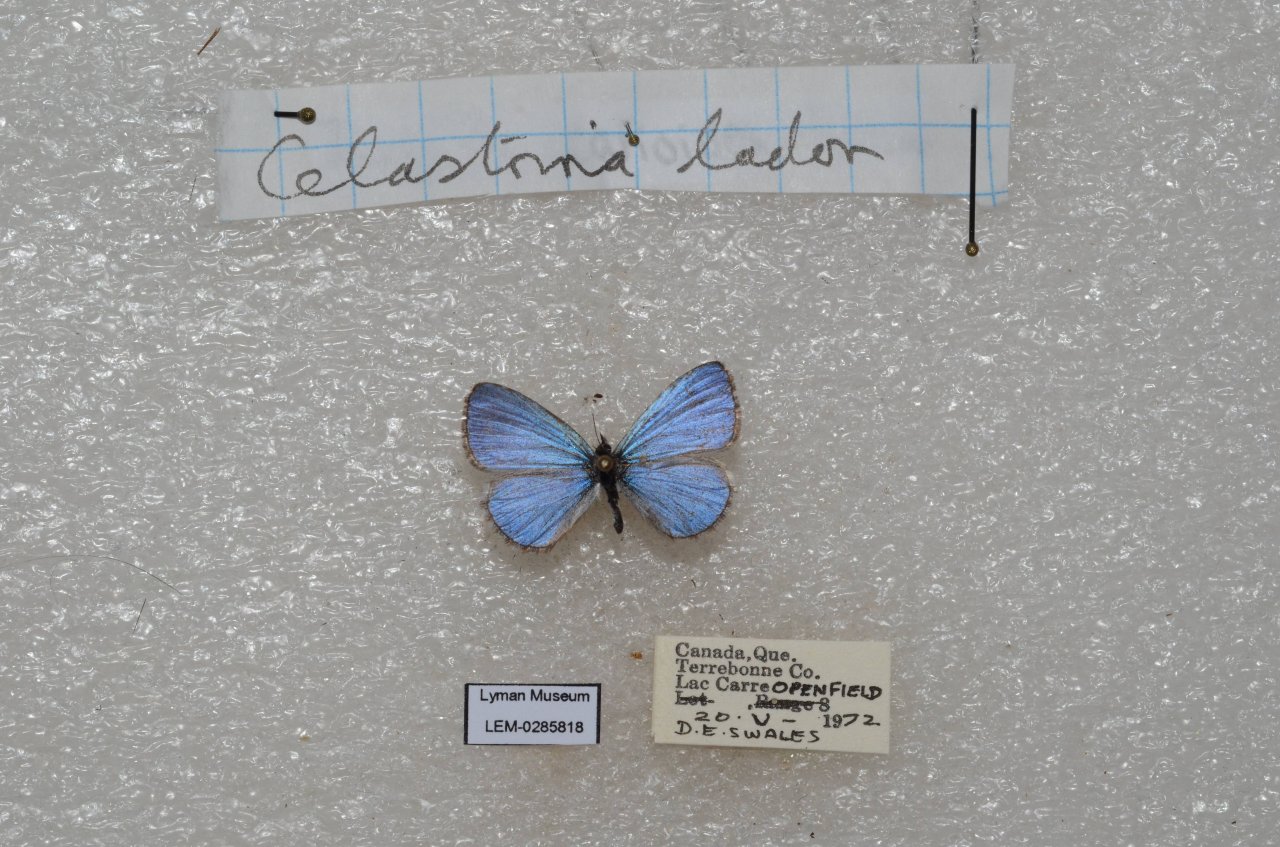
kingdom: Animalia
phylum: Arthropoda
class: Insecta
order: Lepidoptera
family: Lycaenidae
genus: Celastrina
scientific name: Celastrina lucia
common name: Northern Spring Azure
